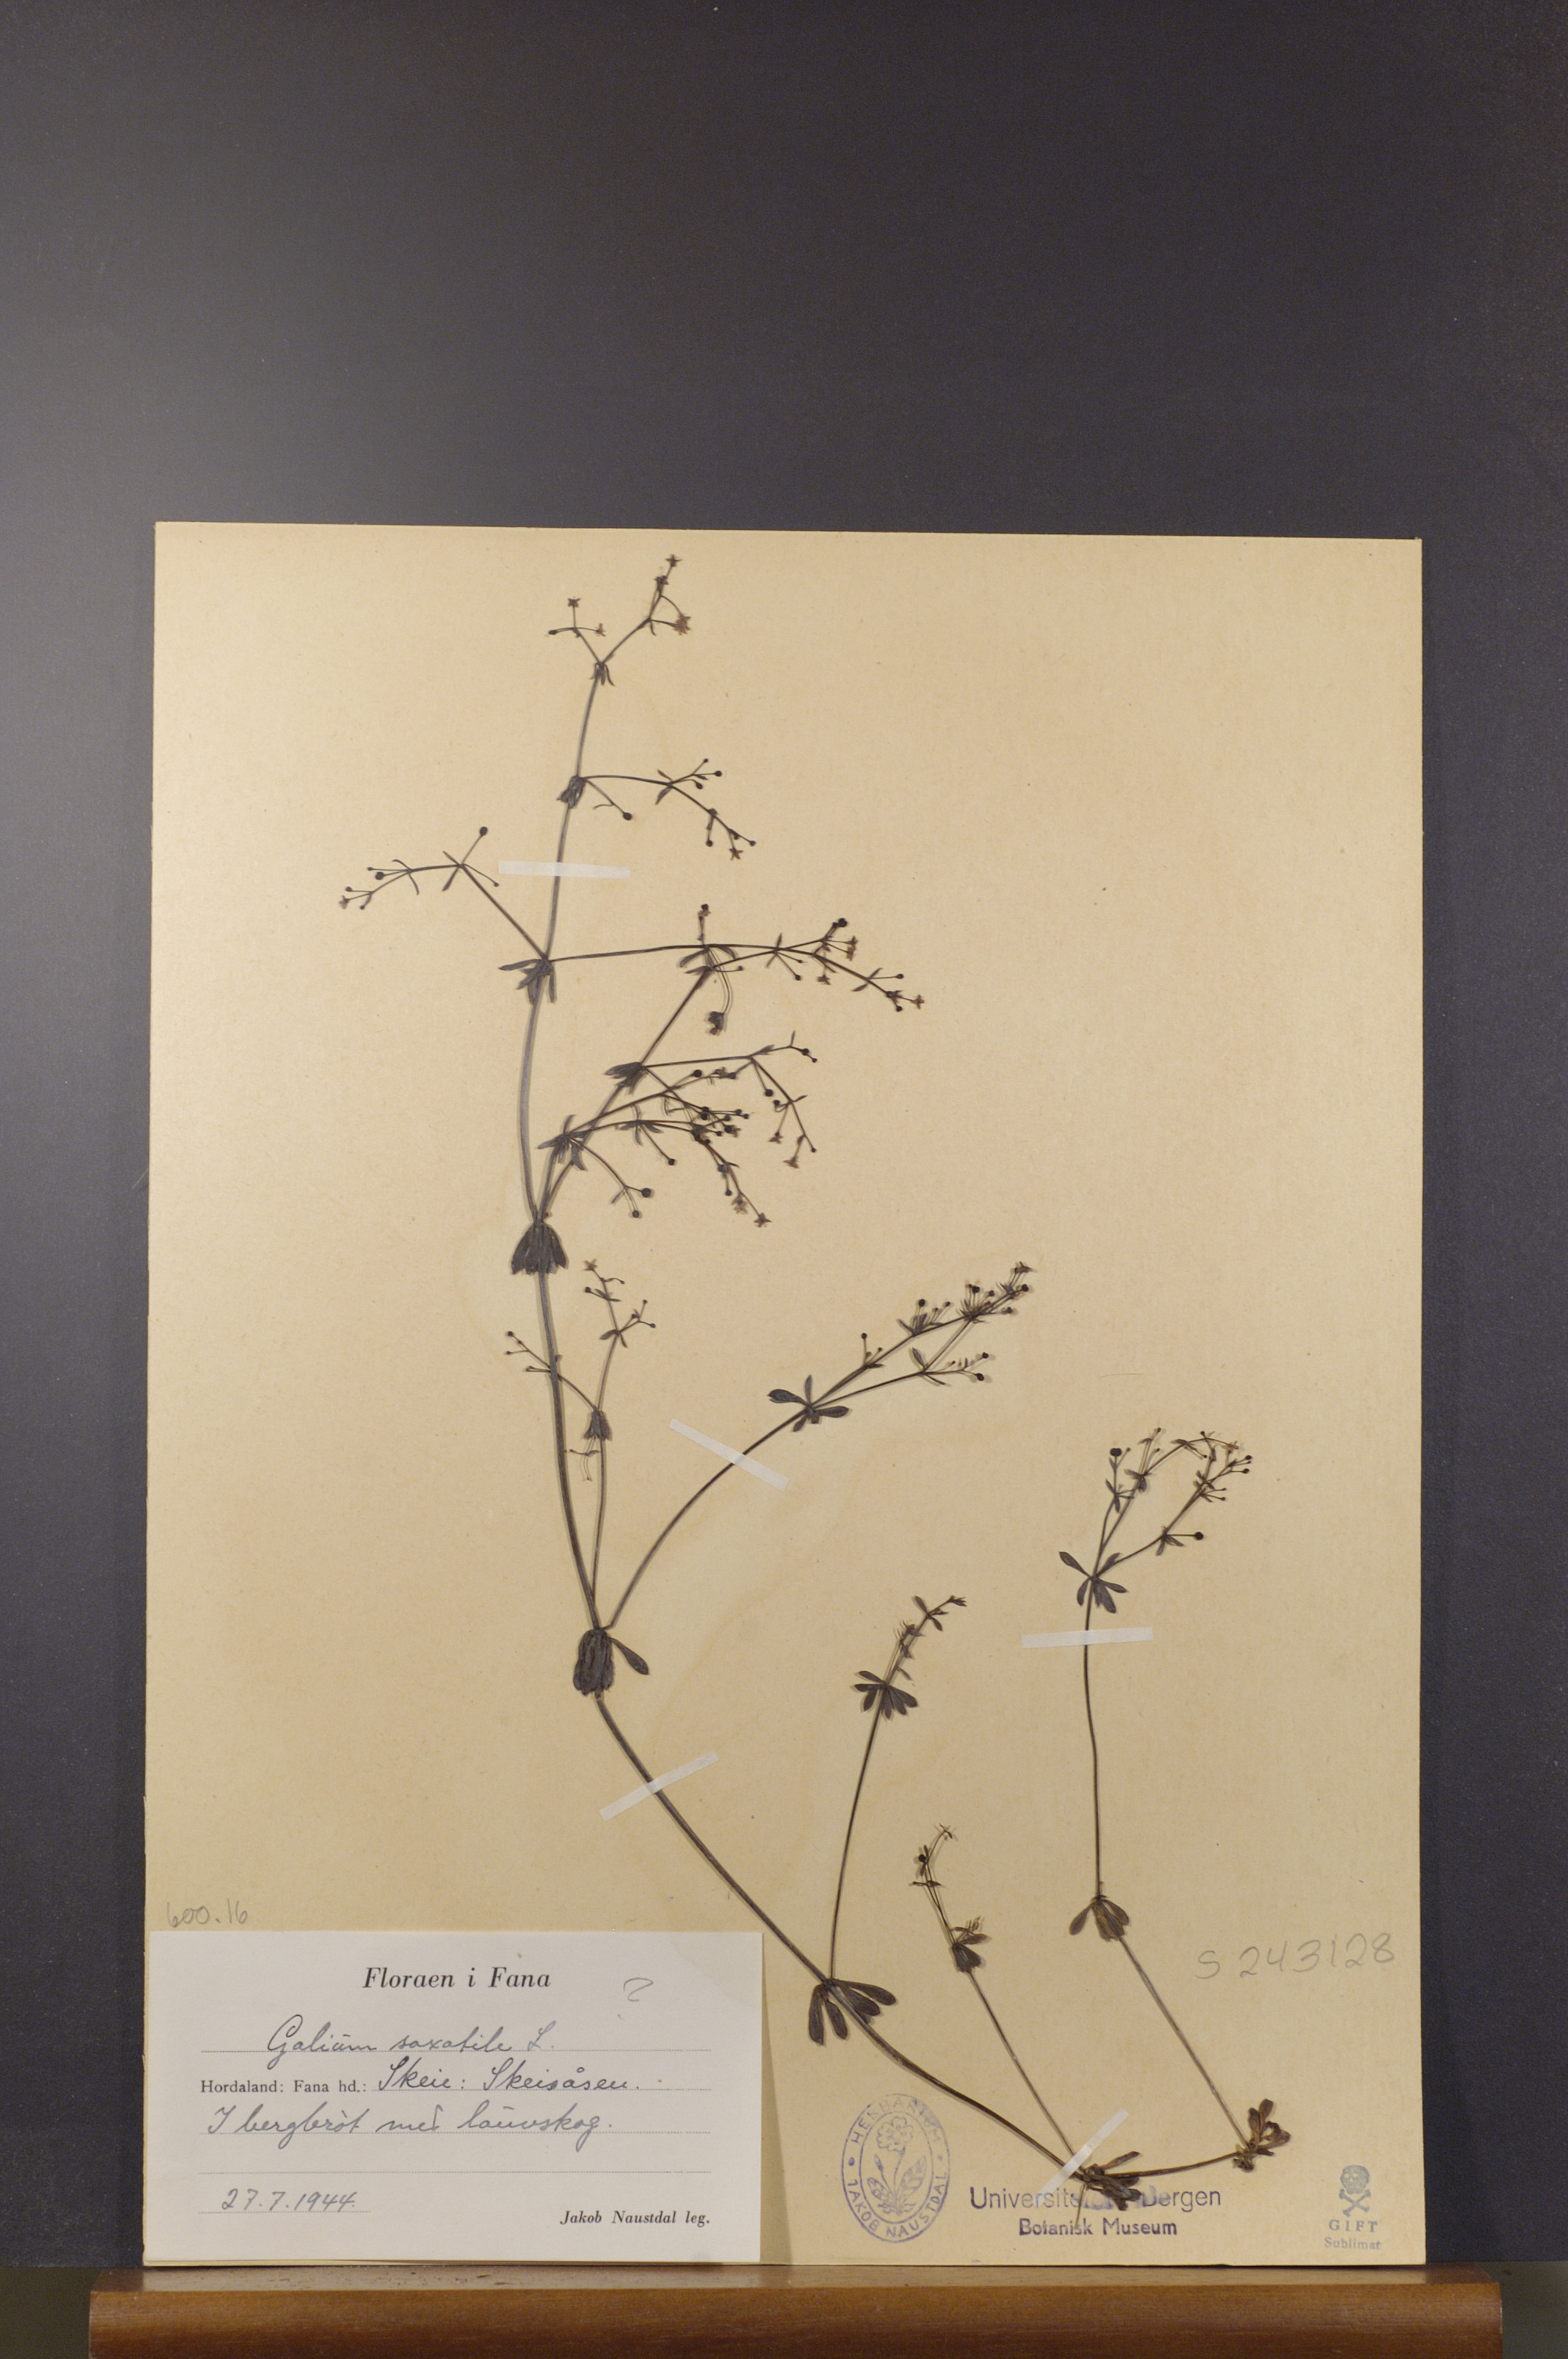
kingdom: Plantae
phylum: Tracheophyta
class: Magnoliopsida
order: Gentianales
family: Rubiaceae
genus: Galium
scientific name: Galium saxatile
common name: Heath bedstraw
